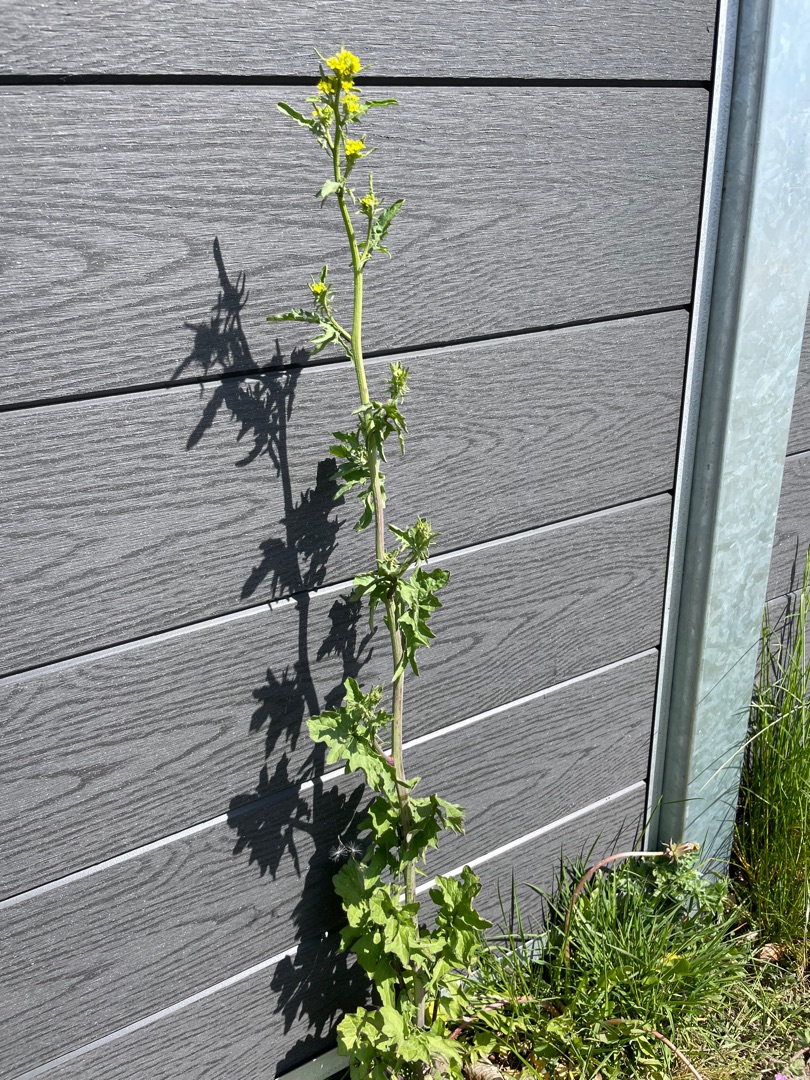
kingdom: Plantae
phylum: Tracheophyta
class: Magnoliopsida
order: Brassicales
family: Brassicaceae
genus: Sisymbrium
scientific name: Sisymbrium officinale
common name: Rank vejsennep
